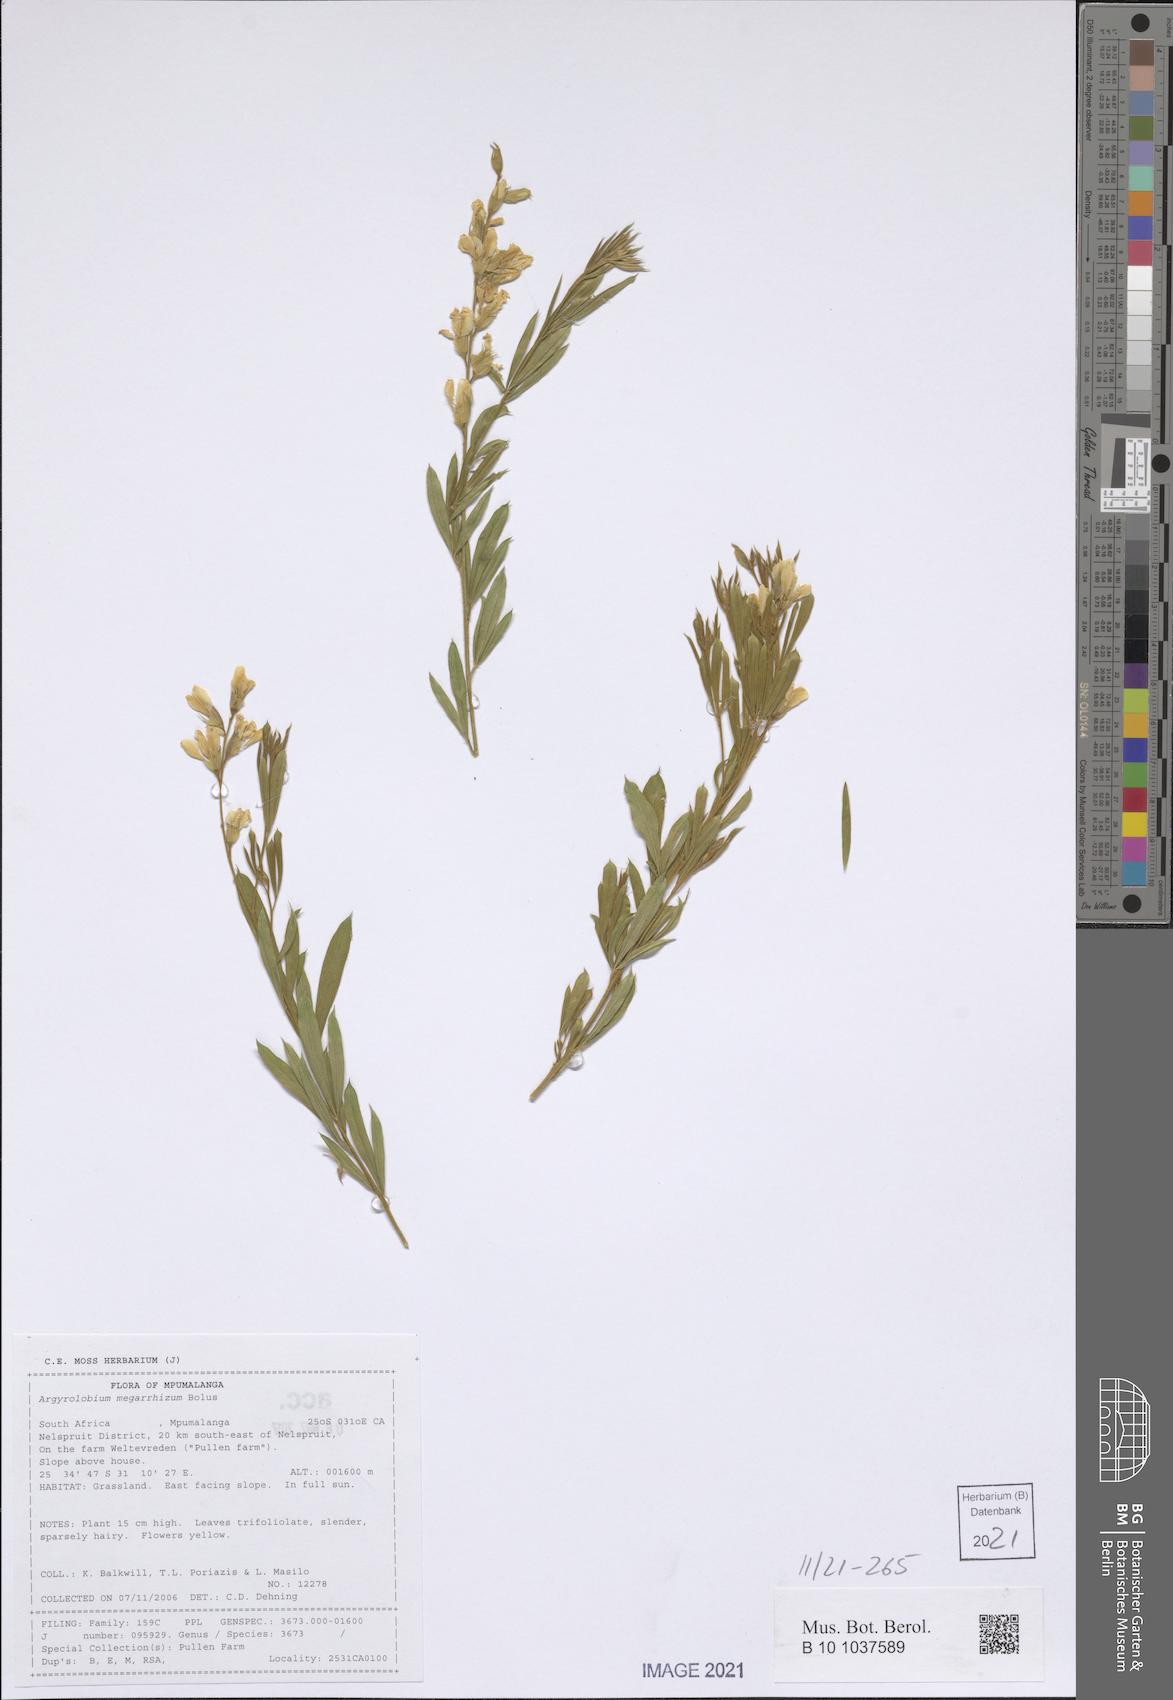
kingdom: Plantae
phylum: Tracheophyta
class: Magnoliopsida
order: Fabales
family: Fabaceae
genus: Argyrolobium
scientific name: Argyrolobium megarhizum
